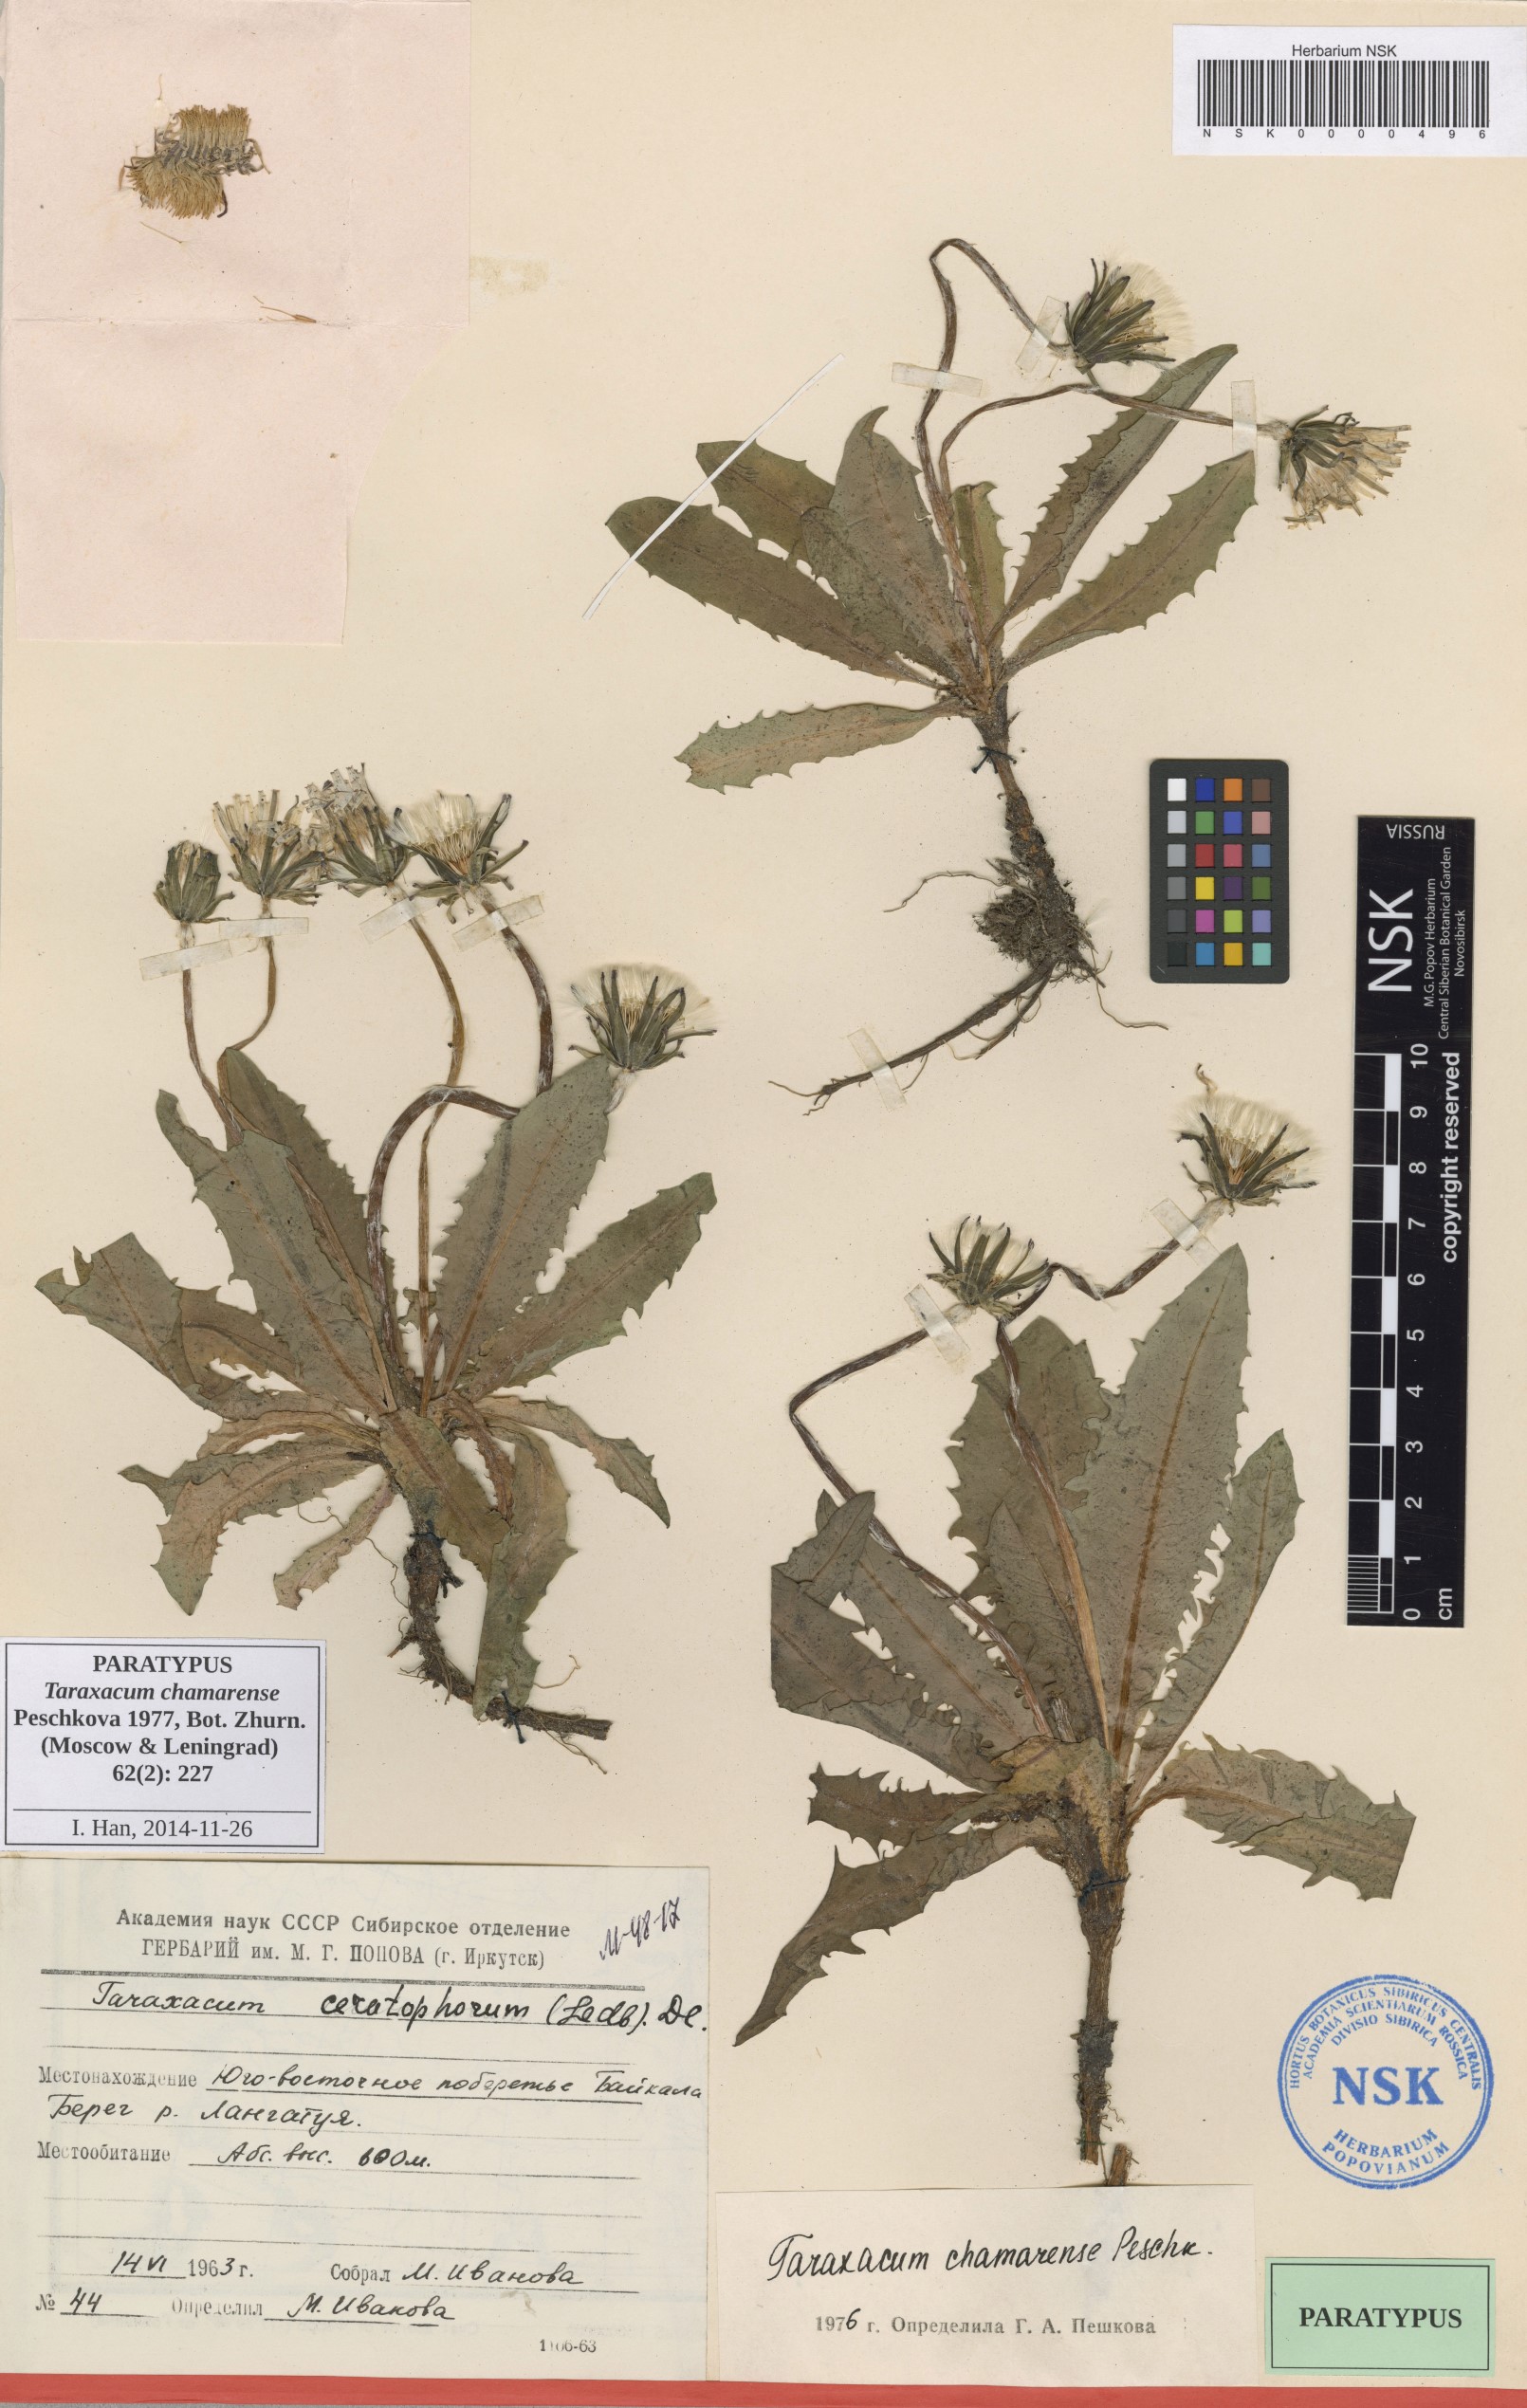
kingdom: Plantae
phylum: Tracheophyta
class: Magnoliopsida
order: Asterales
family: Asteraceae
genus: Taraxacum
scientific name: Taraxacum ceratophorum
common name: Horn-bearing dandelion
